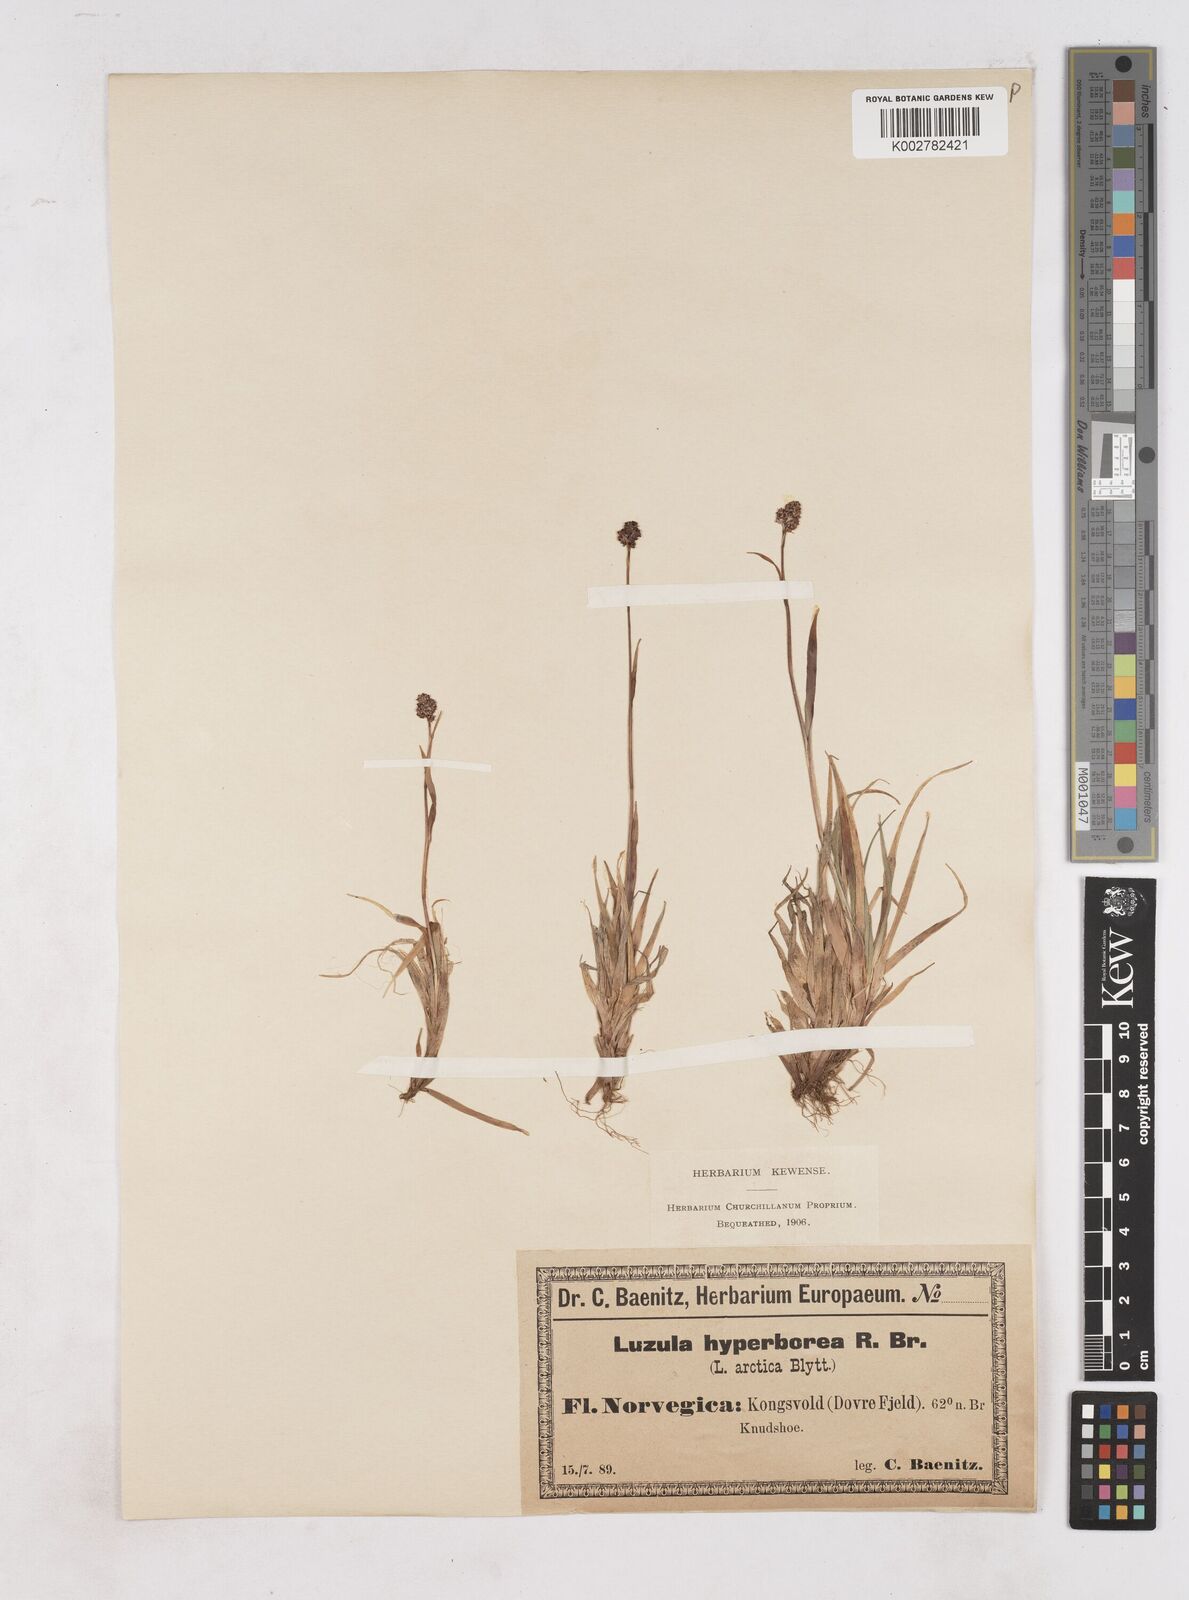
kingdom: Plantae
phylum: Tracheophyta
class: Liliopsida
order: Poales
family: Juncaceae
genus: Luzula
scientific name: Luzula nivalis
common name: Arctic woodrush
